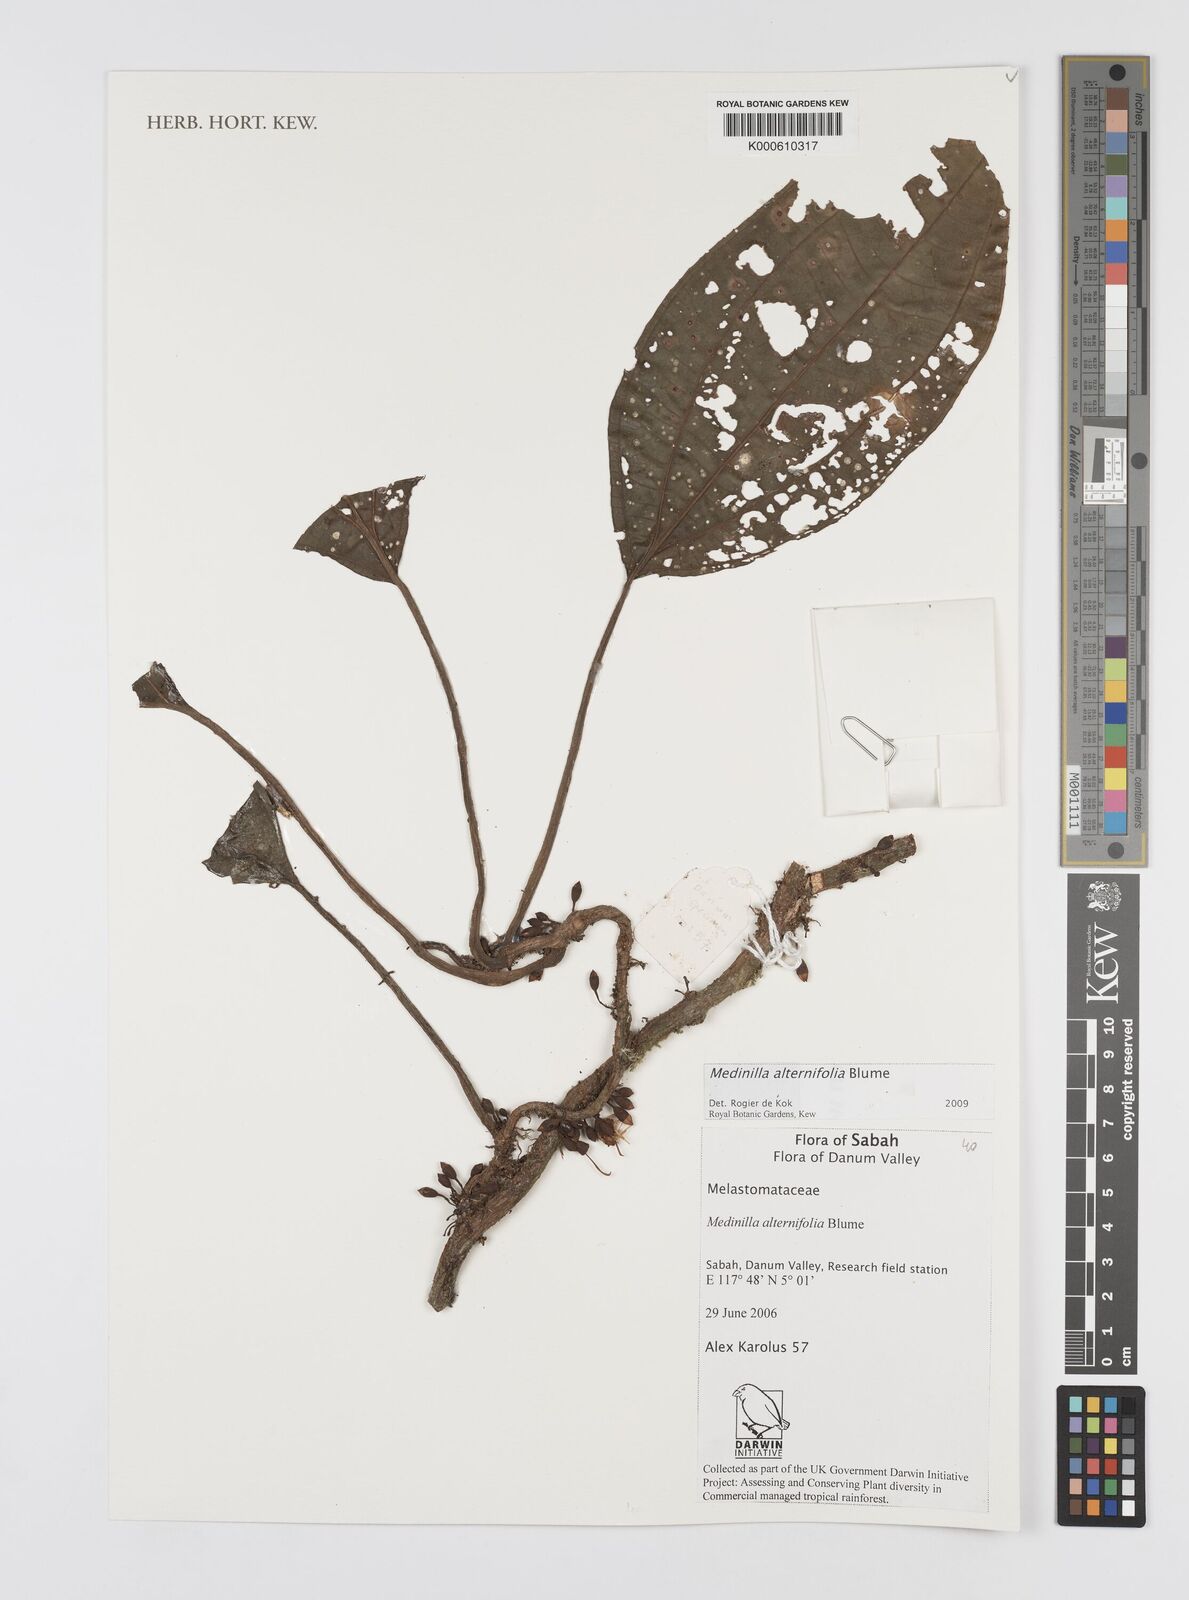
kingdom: Plantae
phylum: Tracheophyta
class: Magnoliopsida
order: Myrtales
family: Melastomataceae
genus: Heteroblemma
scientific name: Heteroblemma alternifolium
